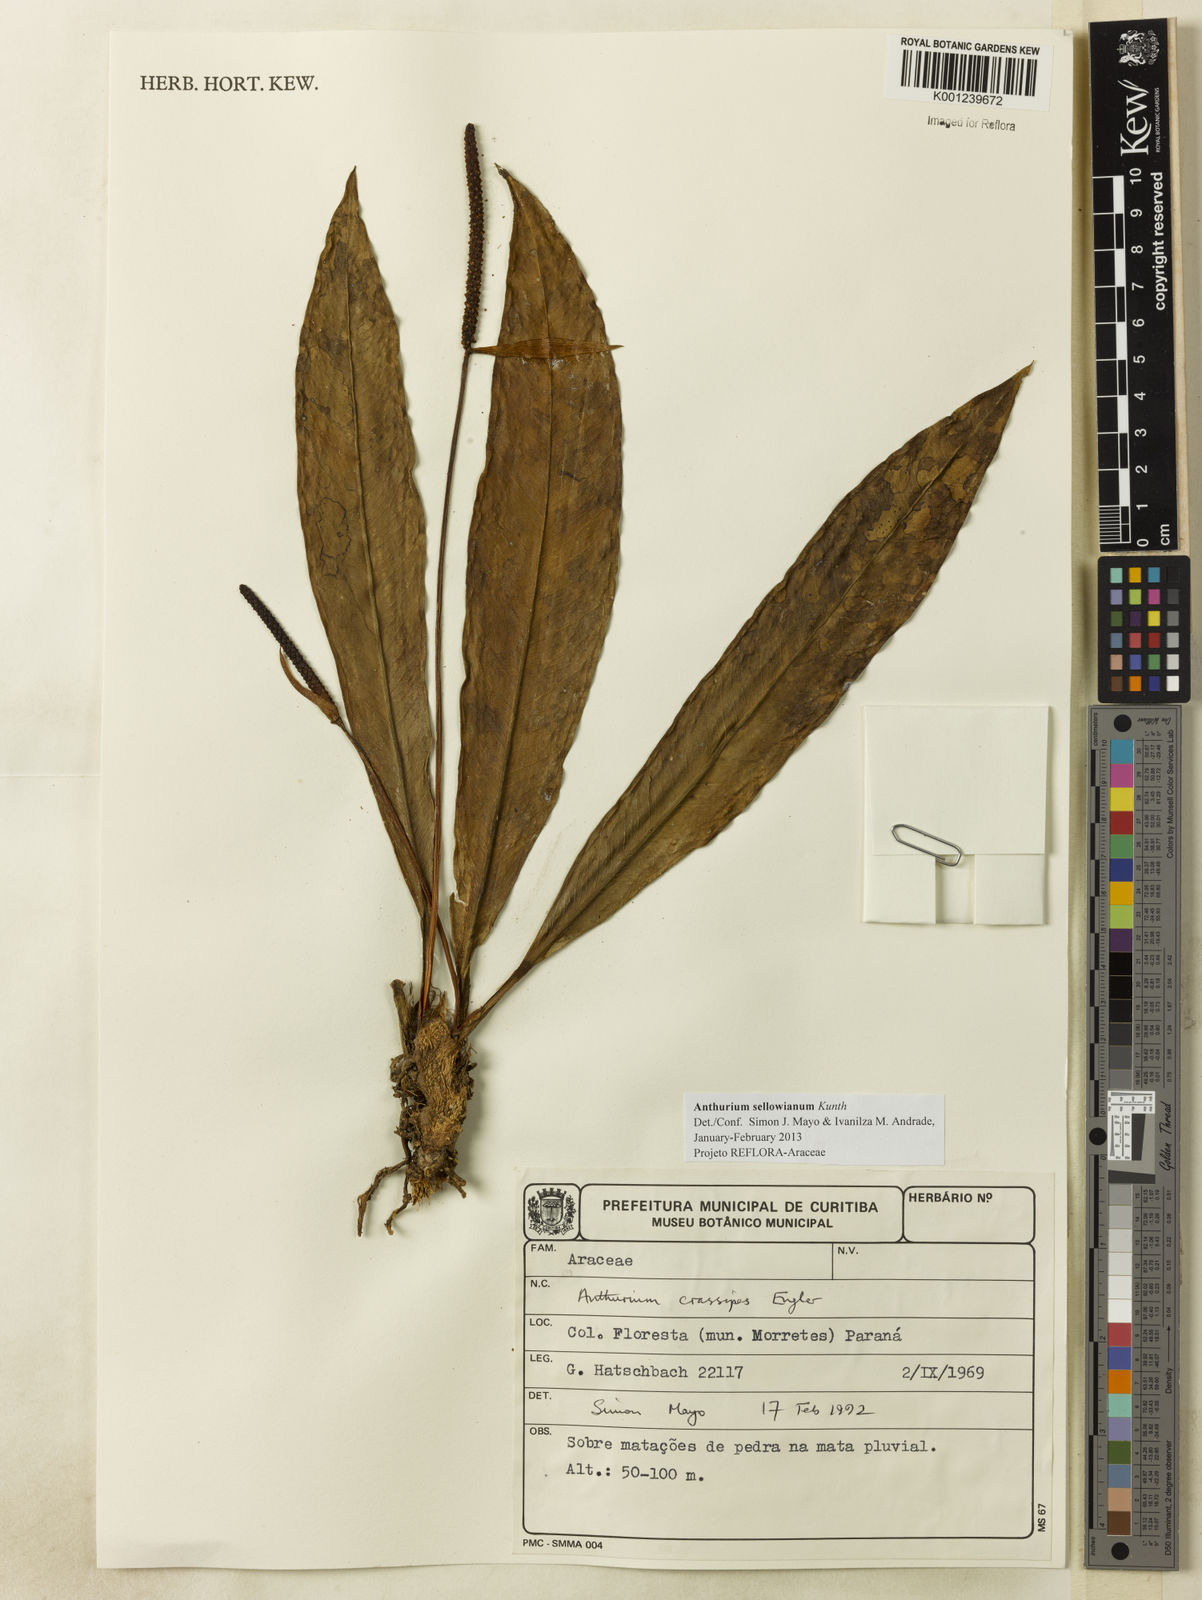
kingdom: Plantae
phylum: Tracheophyta
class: Liliopsida
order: Alismatales
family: Araceae
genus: Anthurium
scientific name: Anthurium sellowianum
